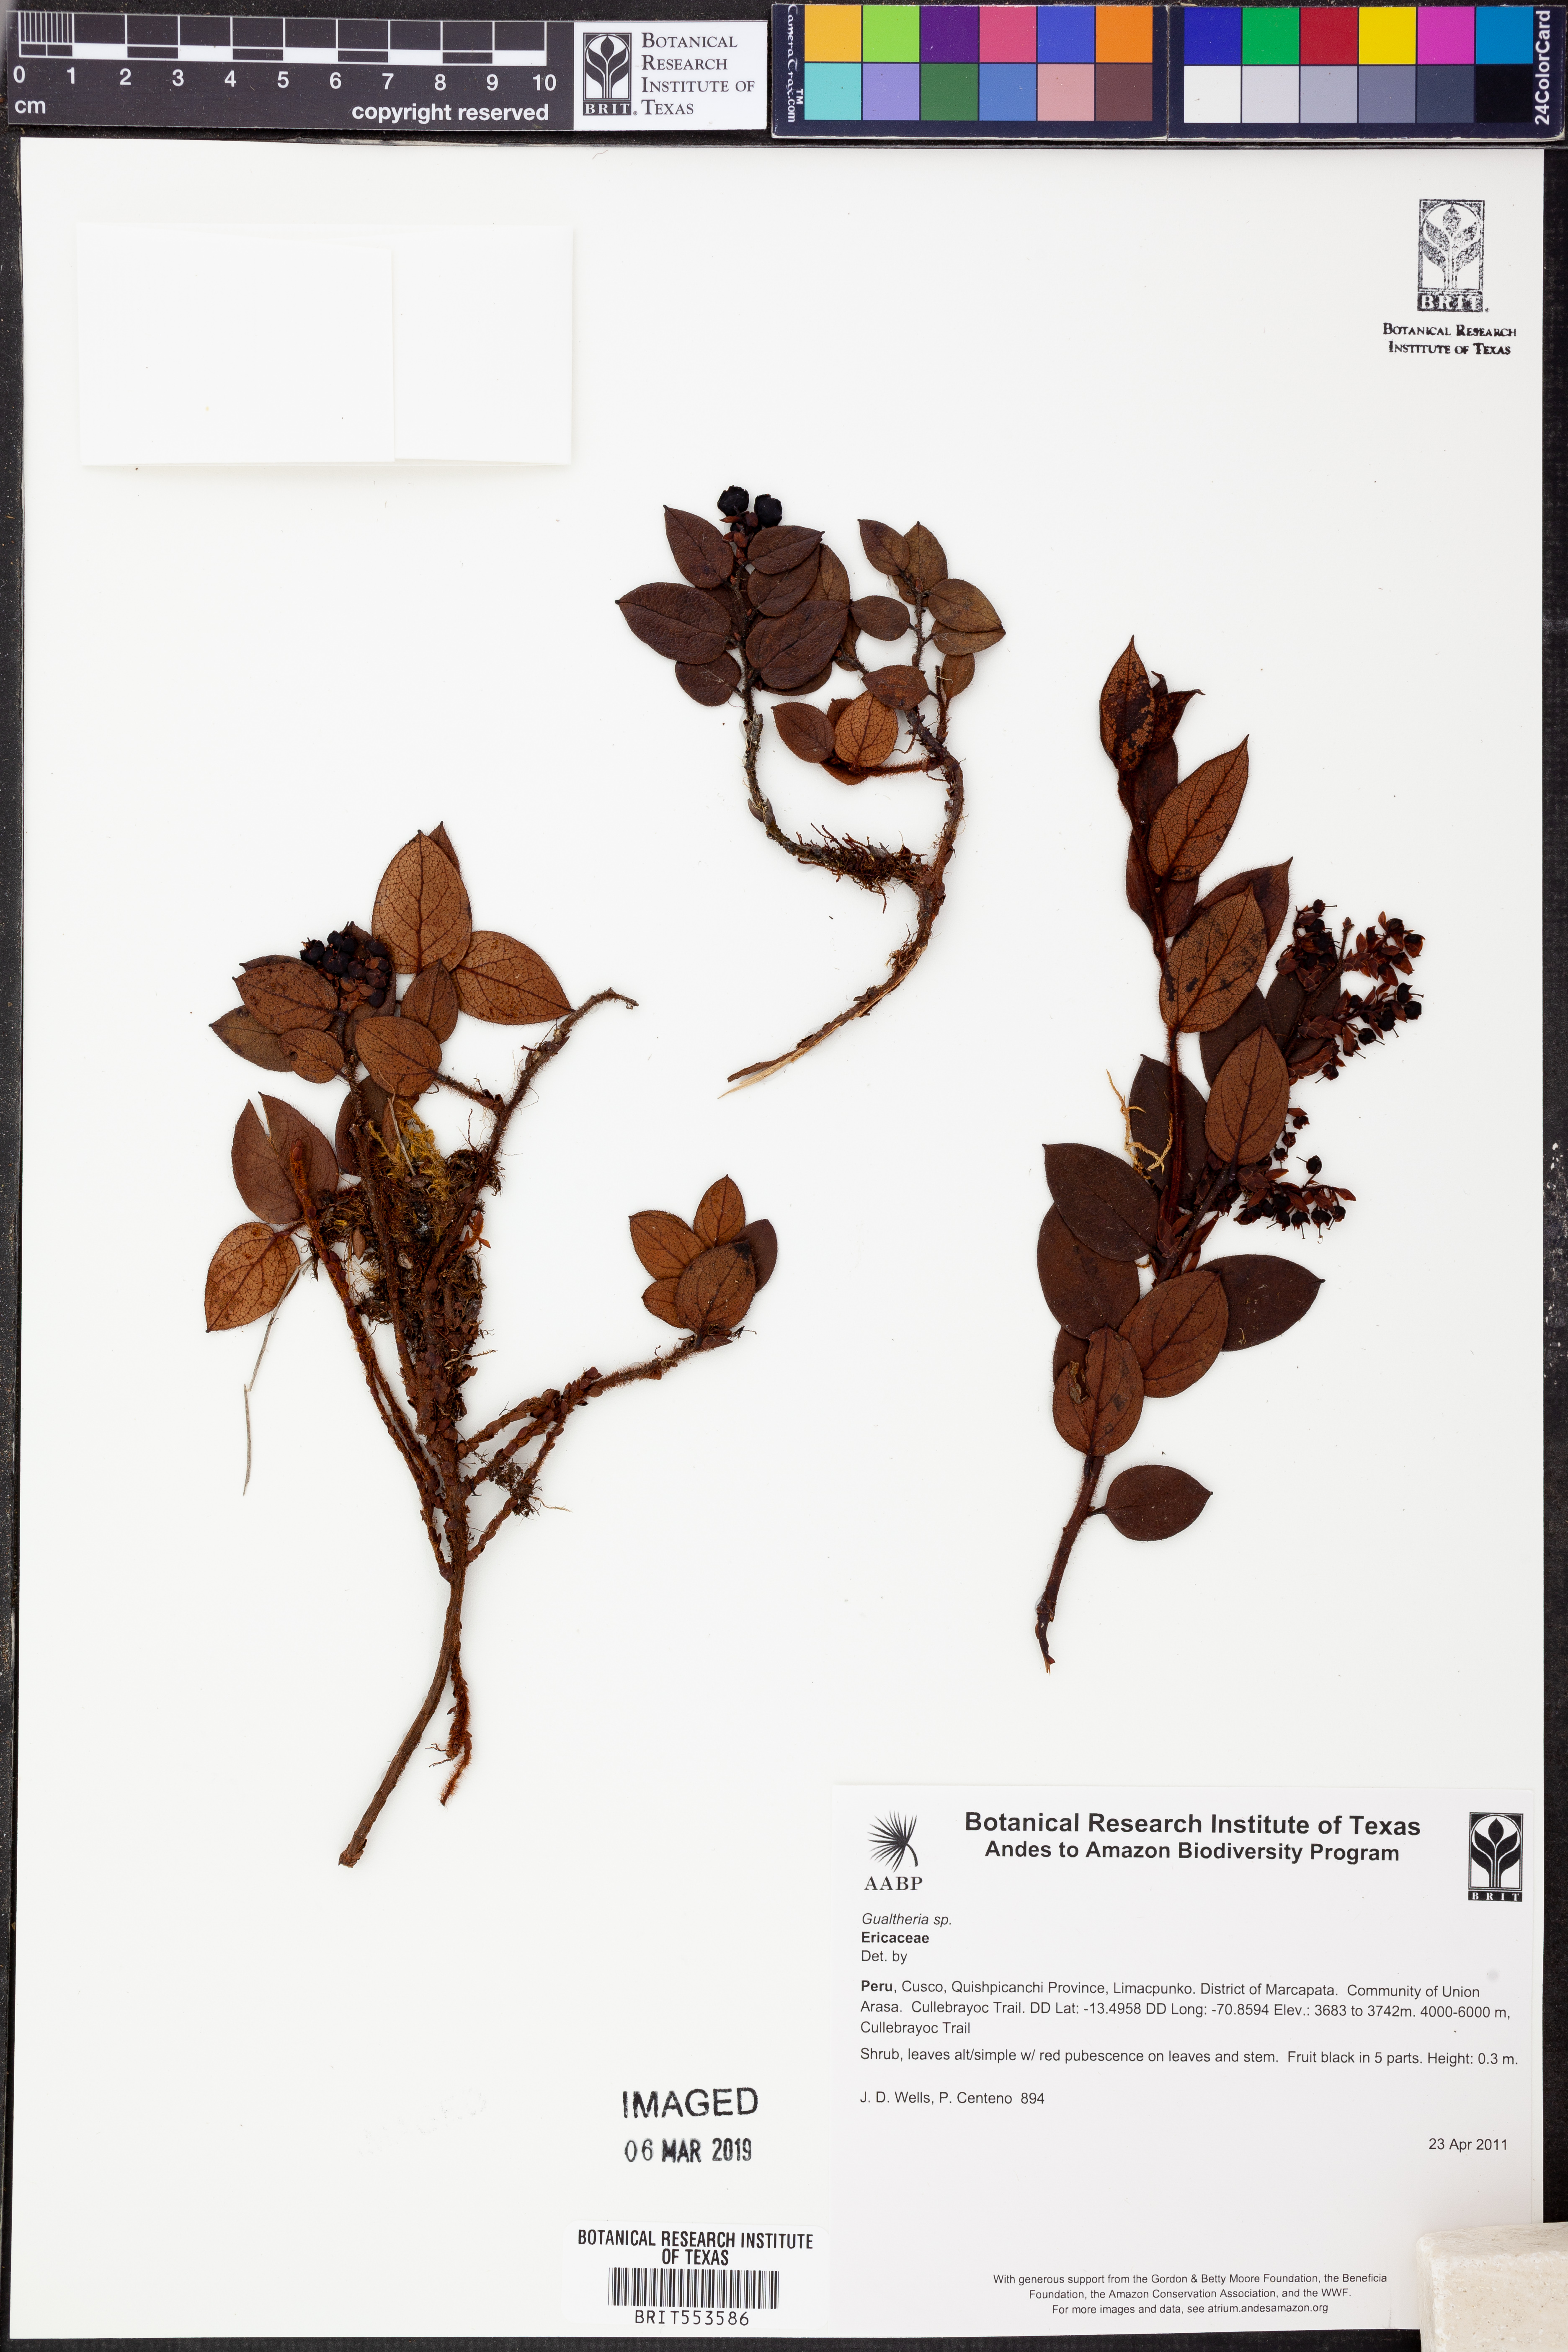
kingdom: Plantae
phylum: Tracheophyta
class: Magnoliopsida
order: Ericales
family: Ericaceae
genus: Gaultheria
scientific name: Gaultheria glomerata
